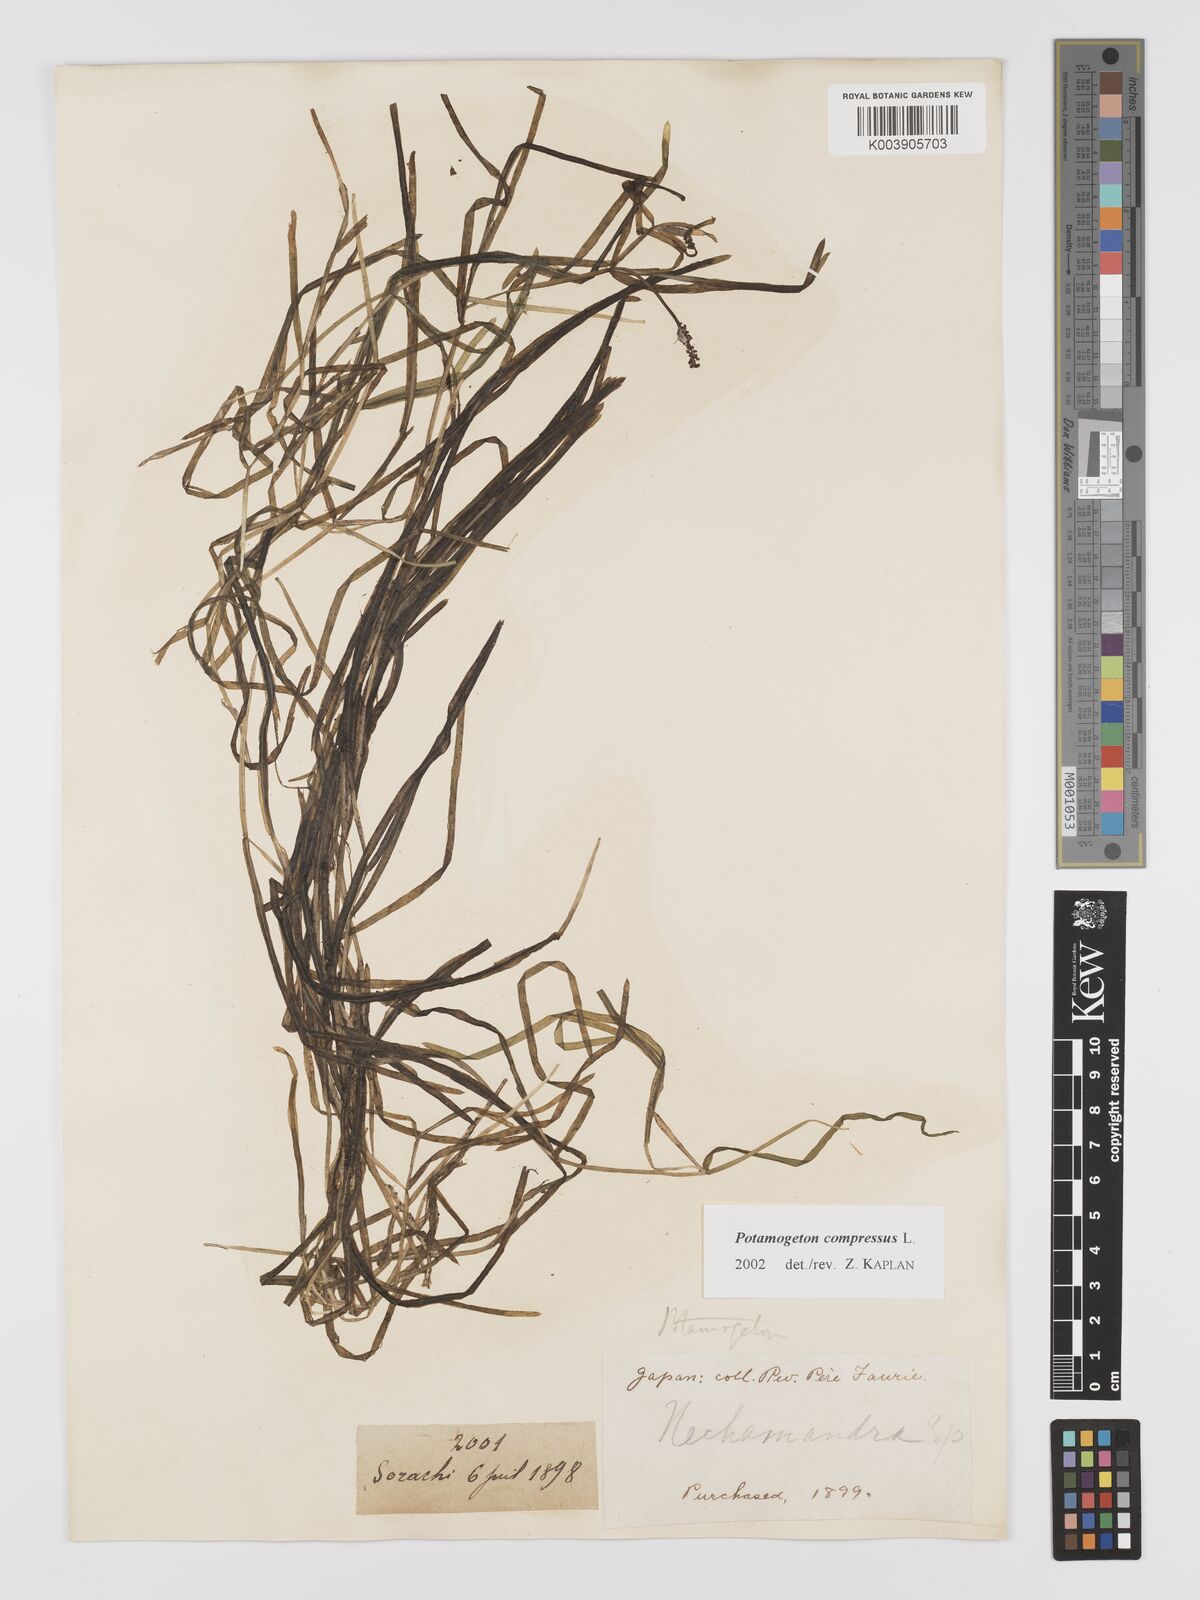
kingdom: Plantae
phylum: Tracheophyta
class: Liliopsida
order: Alismatales
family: Potamogetonaceae
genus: Potamogeton
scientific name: Potamogeton compressus
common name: Grass-wrack pondweed
